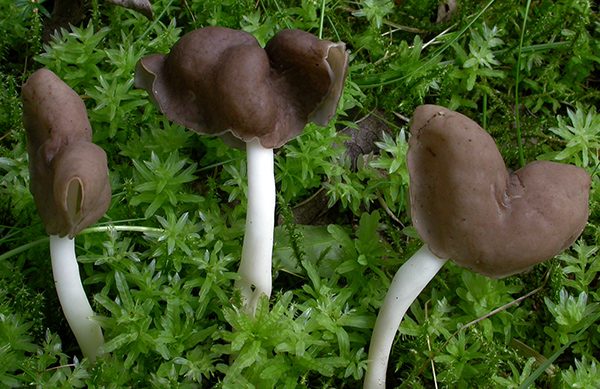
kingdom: Fungi
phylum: Ascomycota
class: Pezizomycetes
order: Pezizales
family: Helvellaceae
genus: Helvella
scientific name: Helvella bicolor
